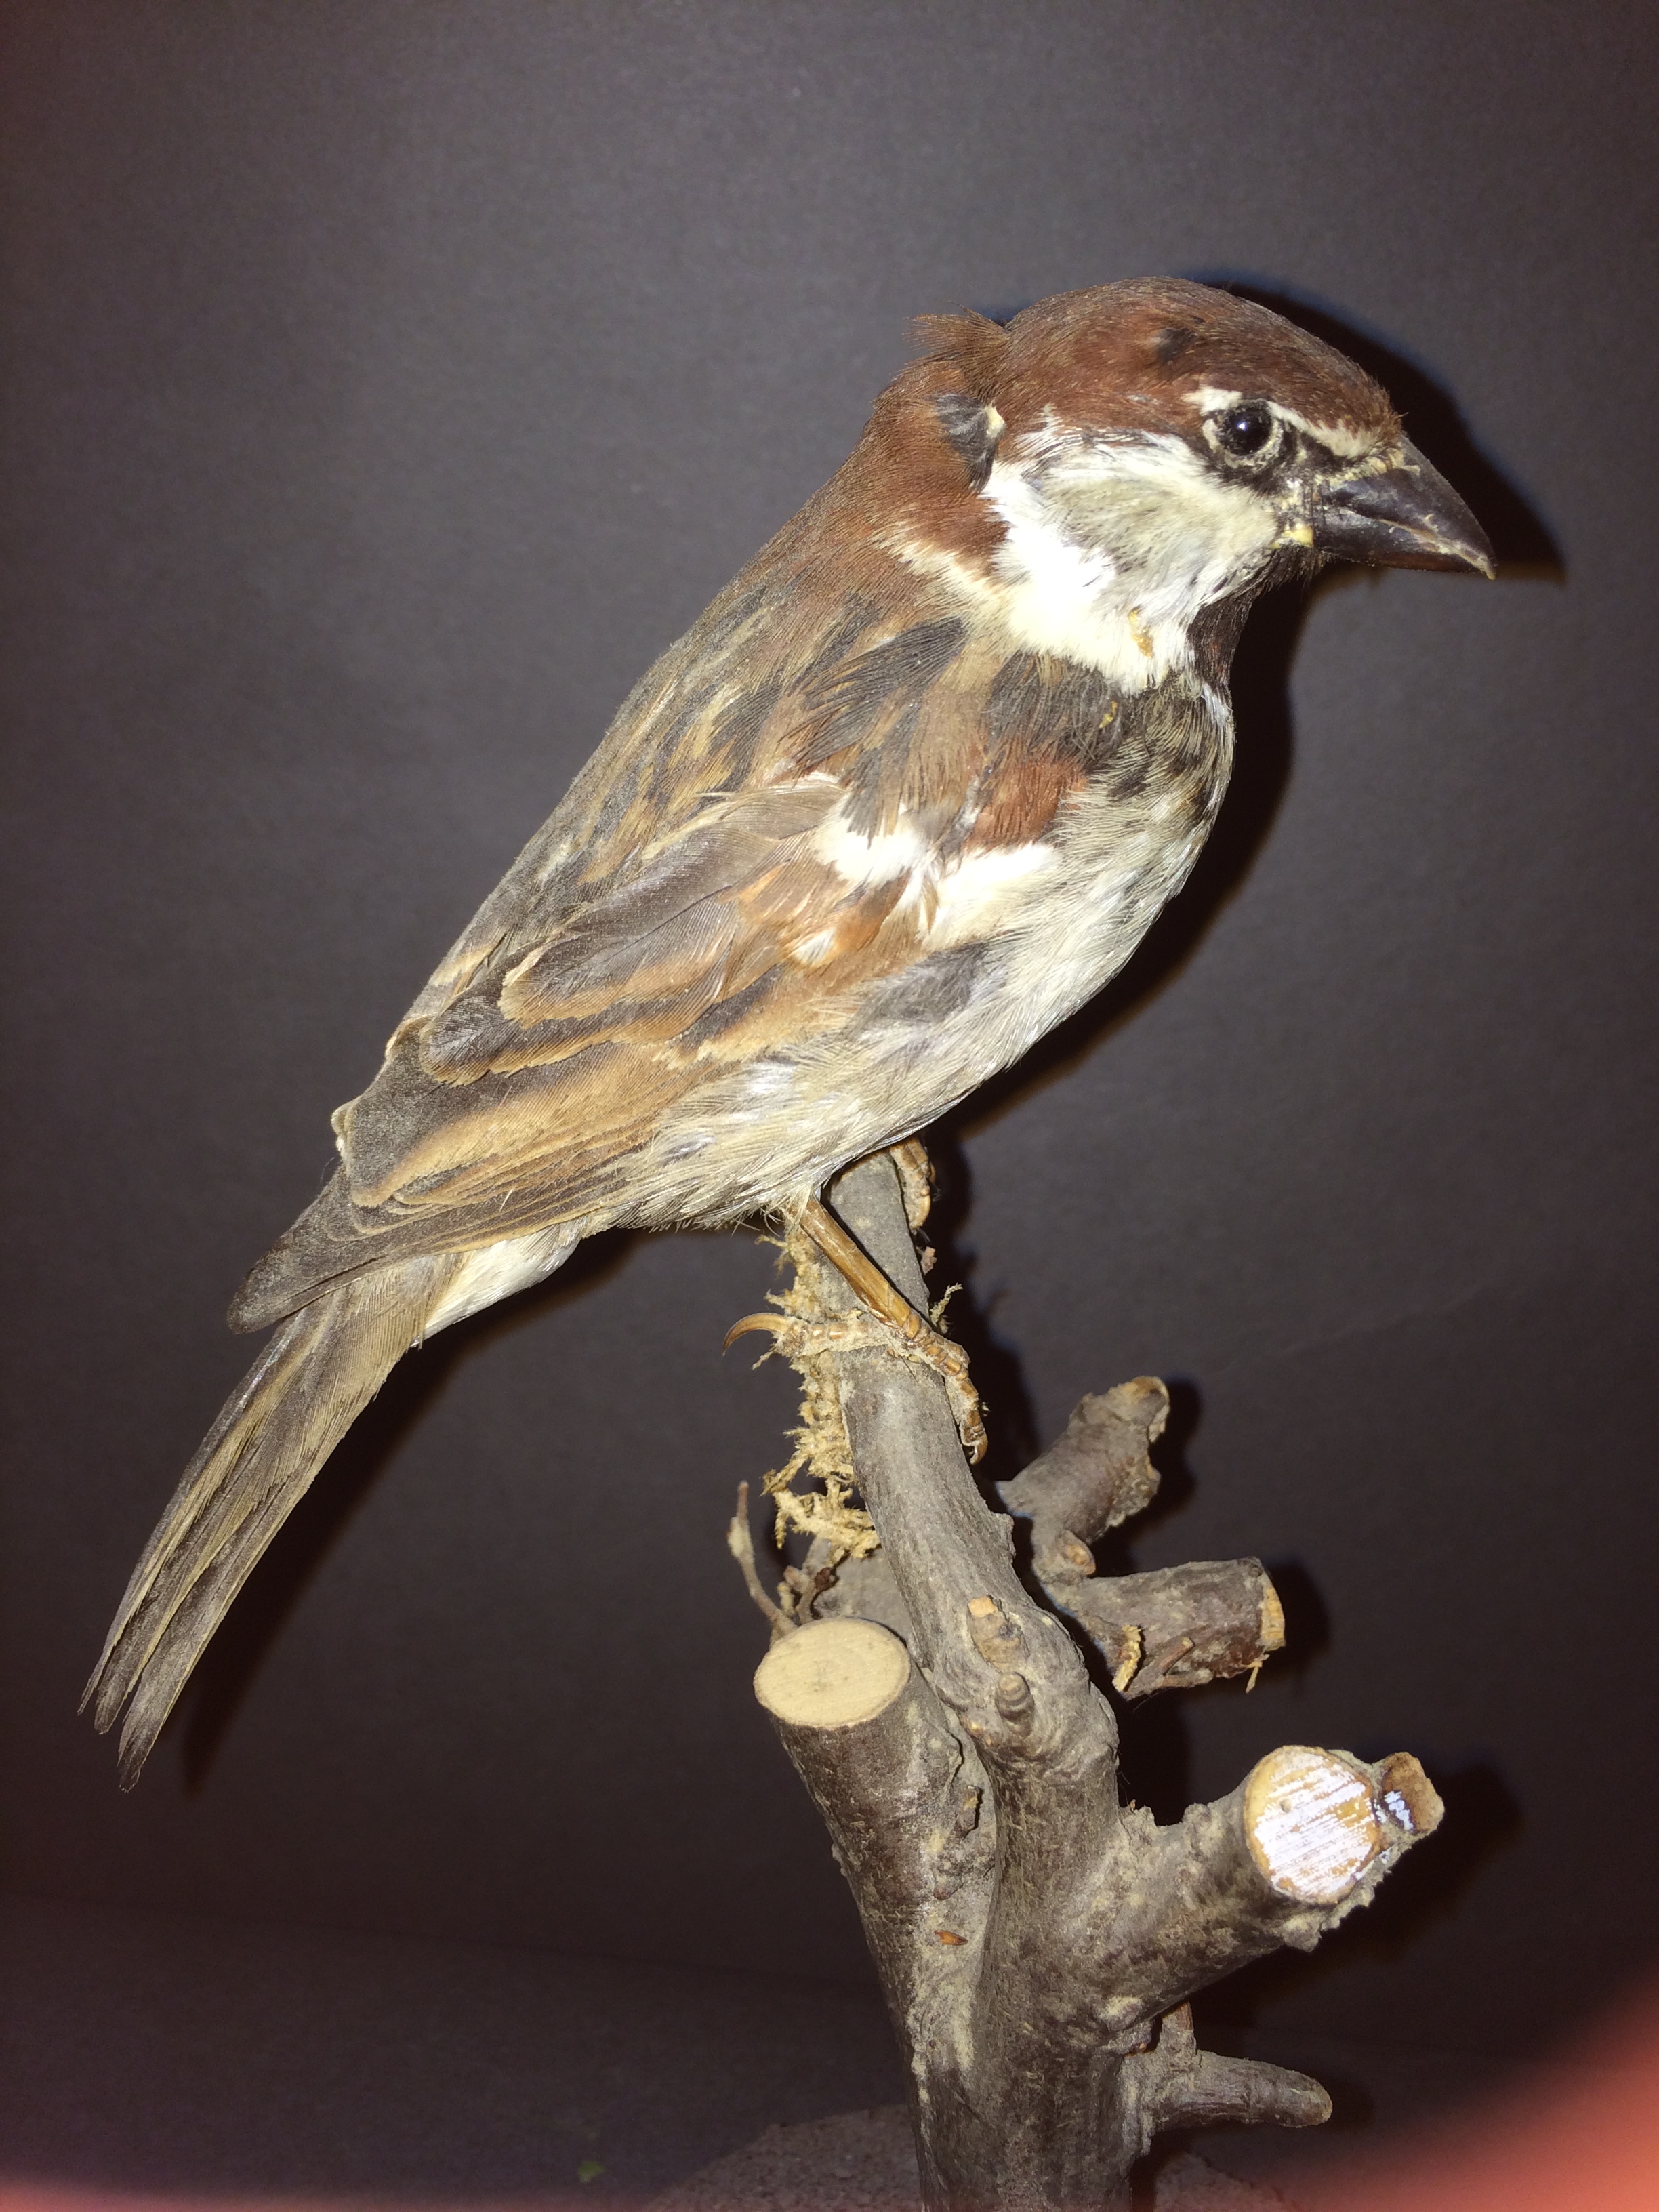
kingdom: Animalia
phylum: Chordata
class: Aves
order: Passeriformes
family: Passeridae
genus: Passer
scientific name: Passer italiae
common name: Italian sparrow
